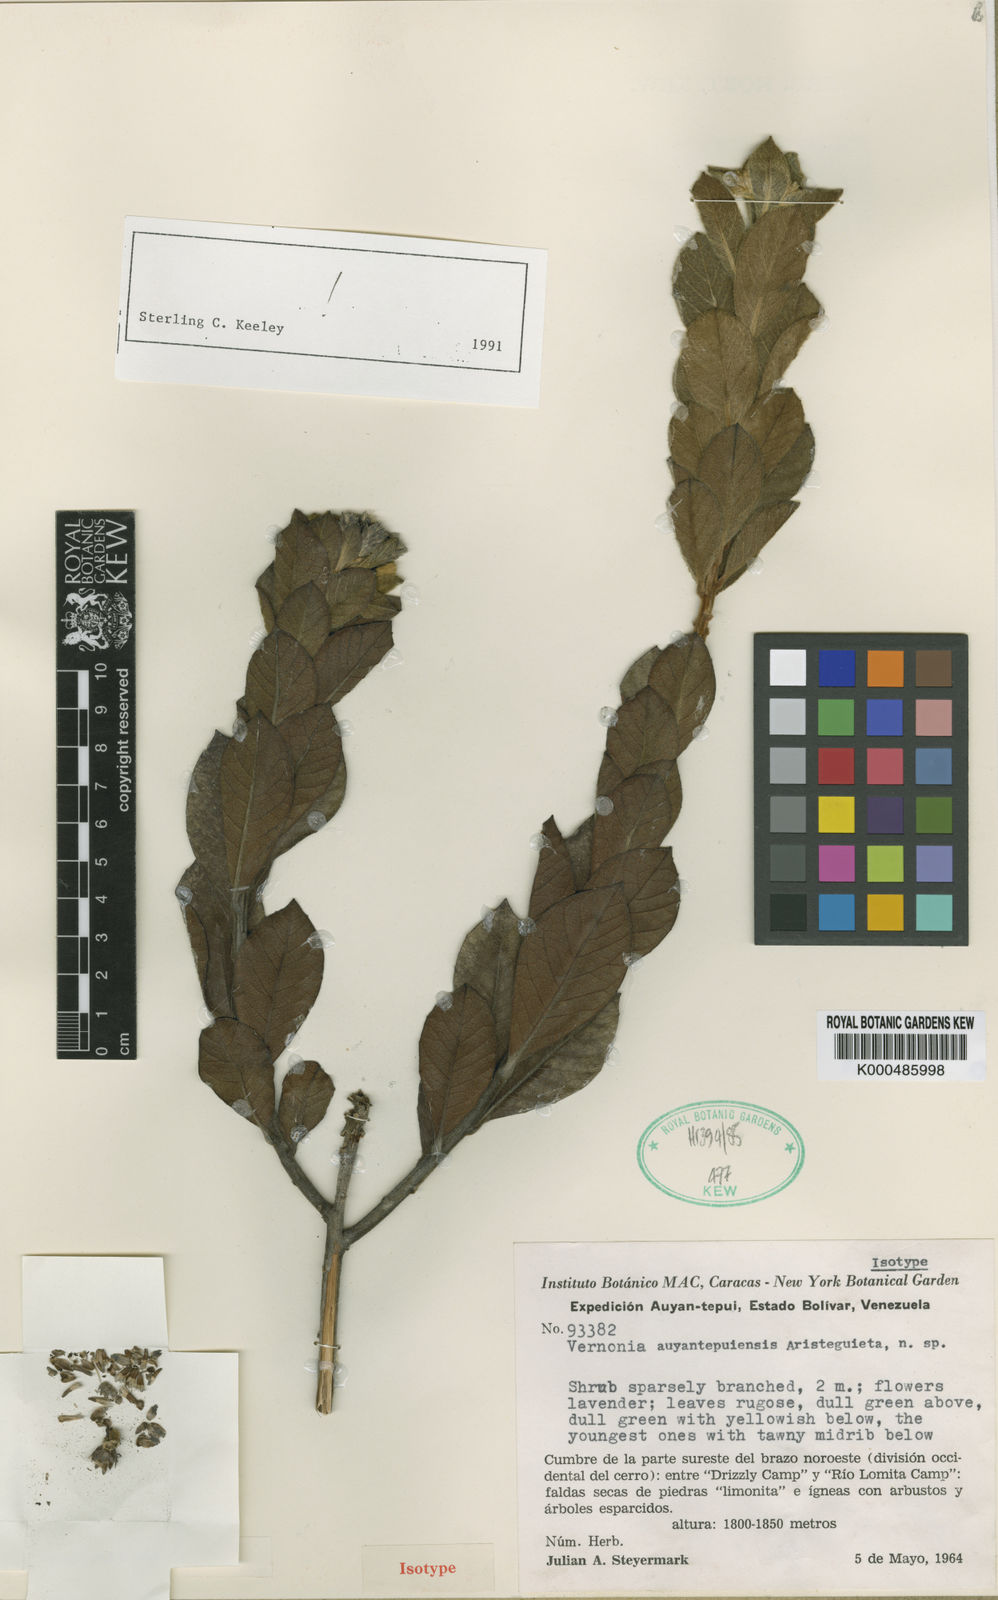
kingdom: Plantae
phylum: Tracheophyta
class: Magnoliopsida
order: Asterales
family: Asteraceae
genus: Lepidaploa
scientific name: Lepidaploa ehretiifolia
